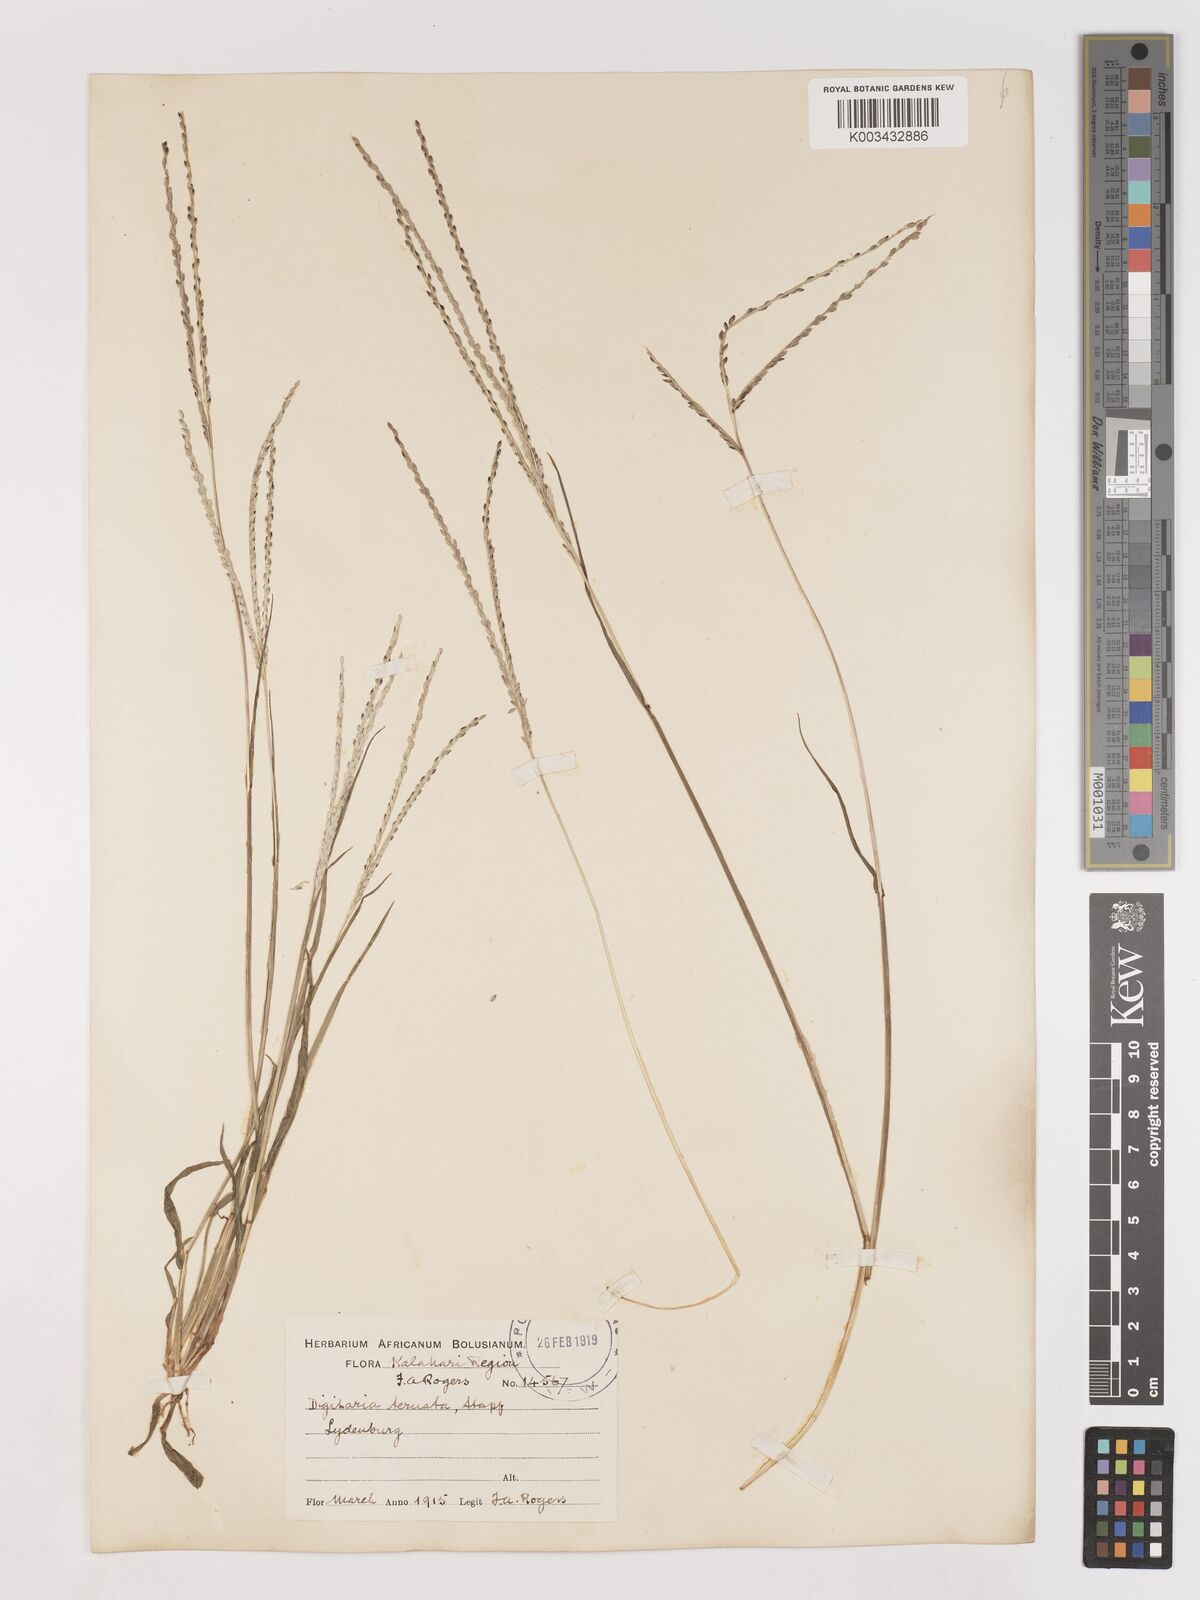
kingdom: Plantae
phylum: Tracheophyta
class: Liliopsida
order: Poales
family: Poaceae
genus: Digitaria
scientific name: Digitaria ternata
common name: Blackseed crabgrass
